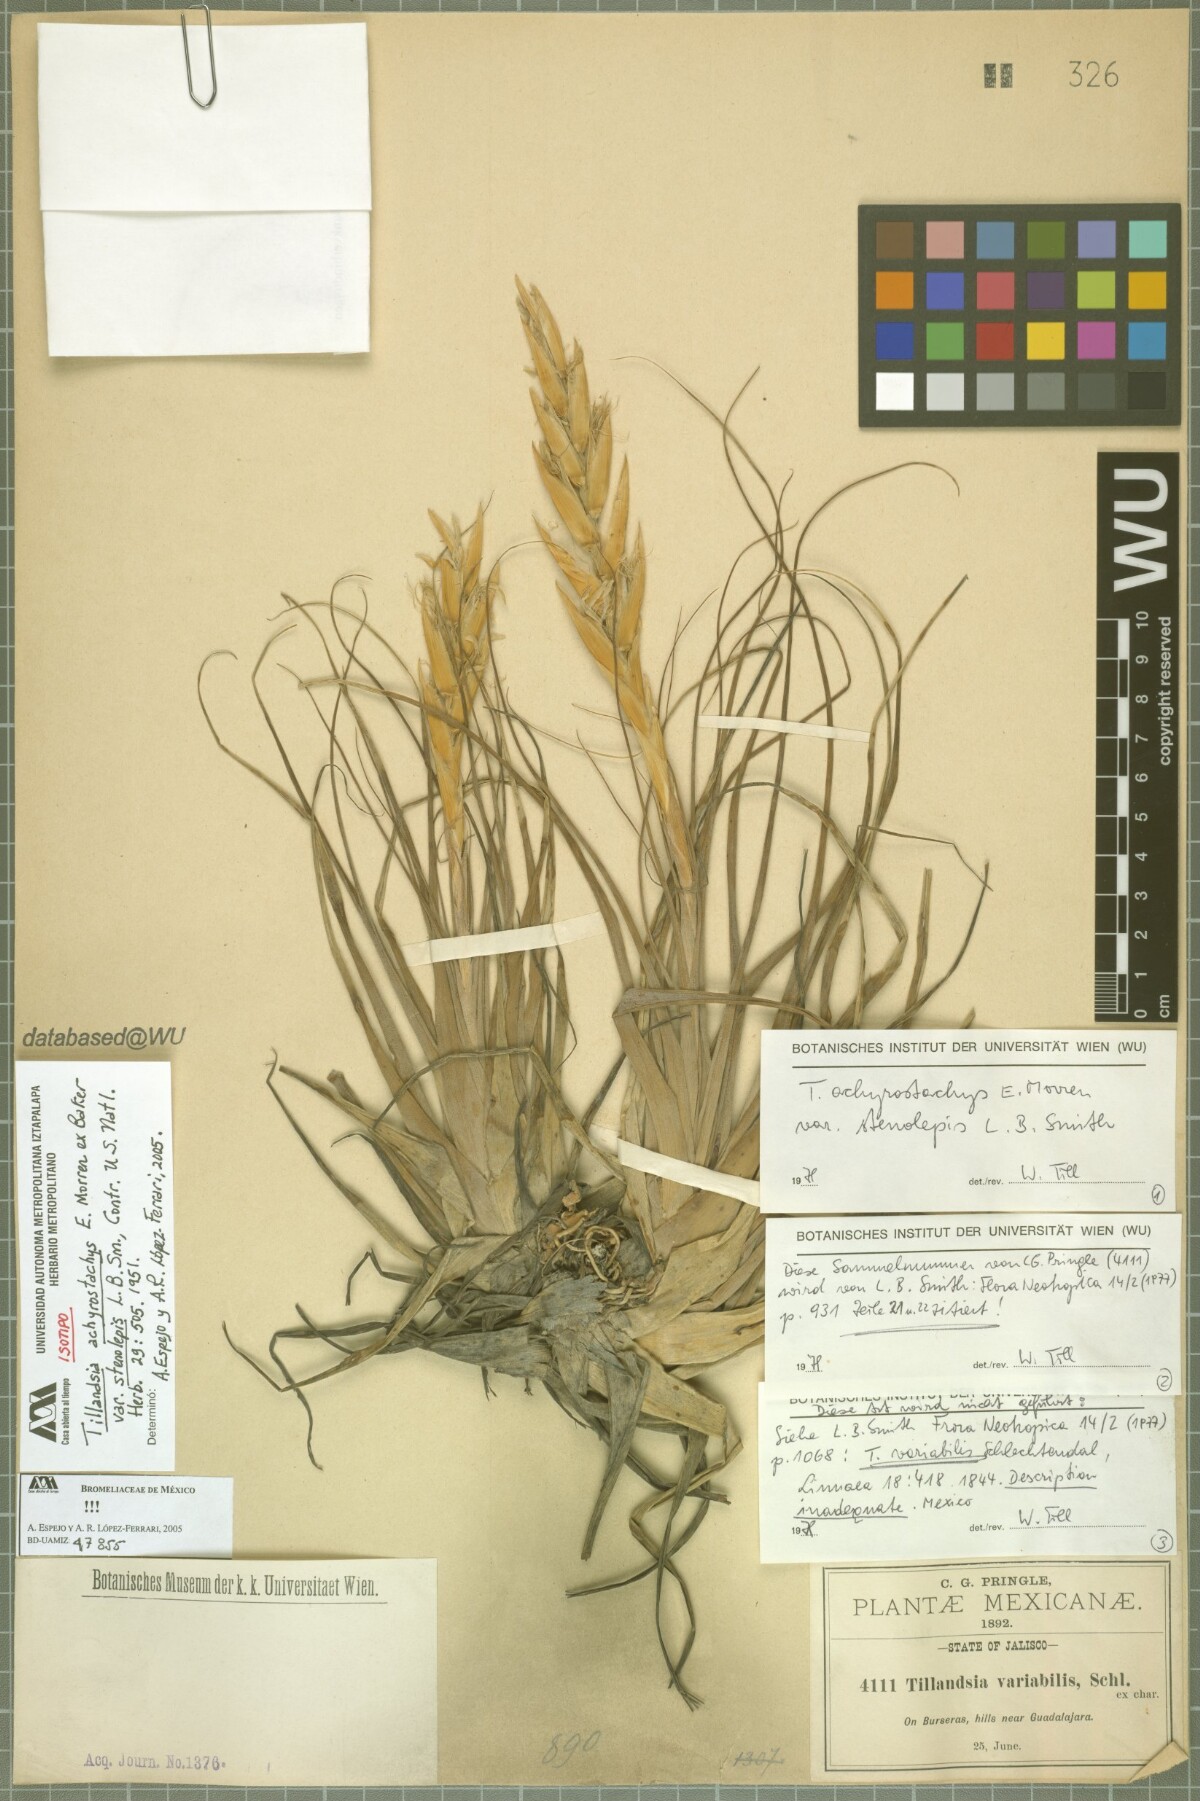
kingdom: Plantae
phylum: Tracheophyta
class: Liliopsida
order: Poales
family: Bromeliaceae
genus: Tillandsia
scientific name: Tillandsia achyrostachys
